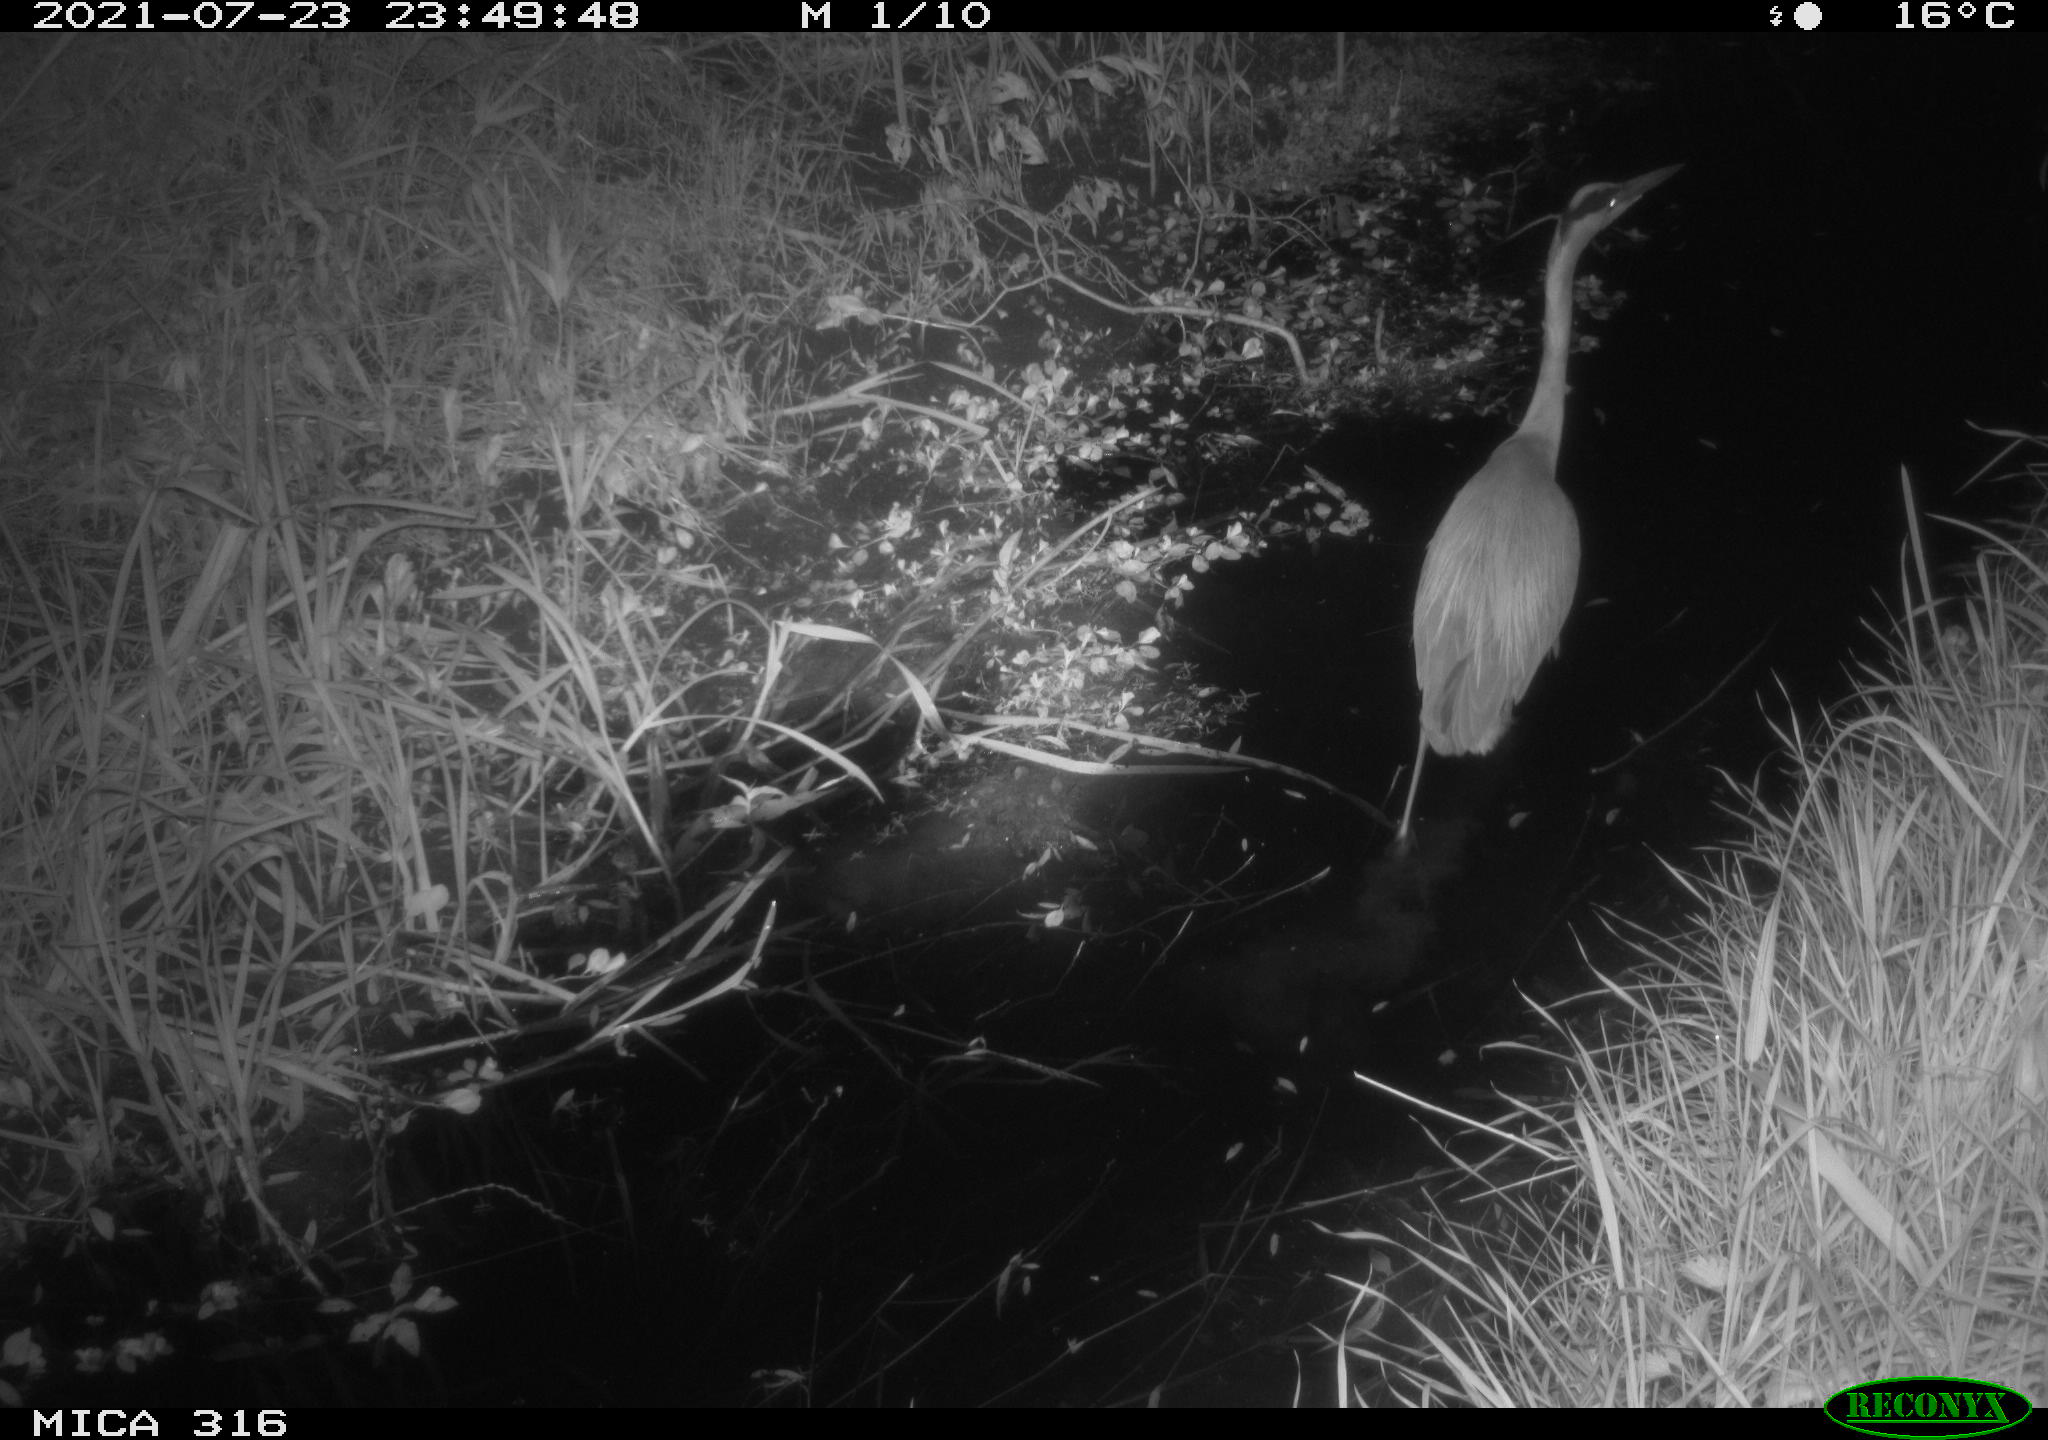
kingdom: Animalia
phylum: Chordata
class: Aves
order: Pelecaniformes
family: Ardeidae
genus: Ardea
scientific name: Ardea
